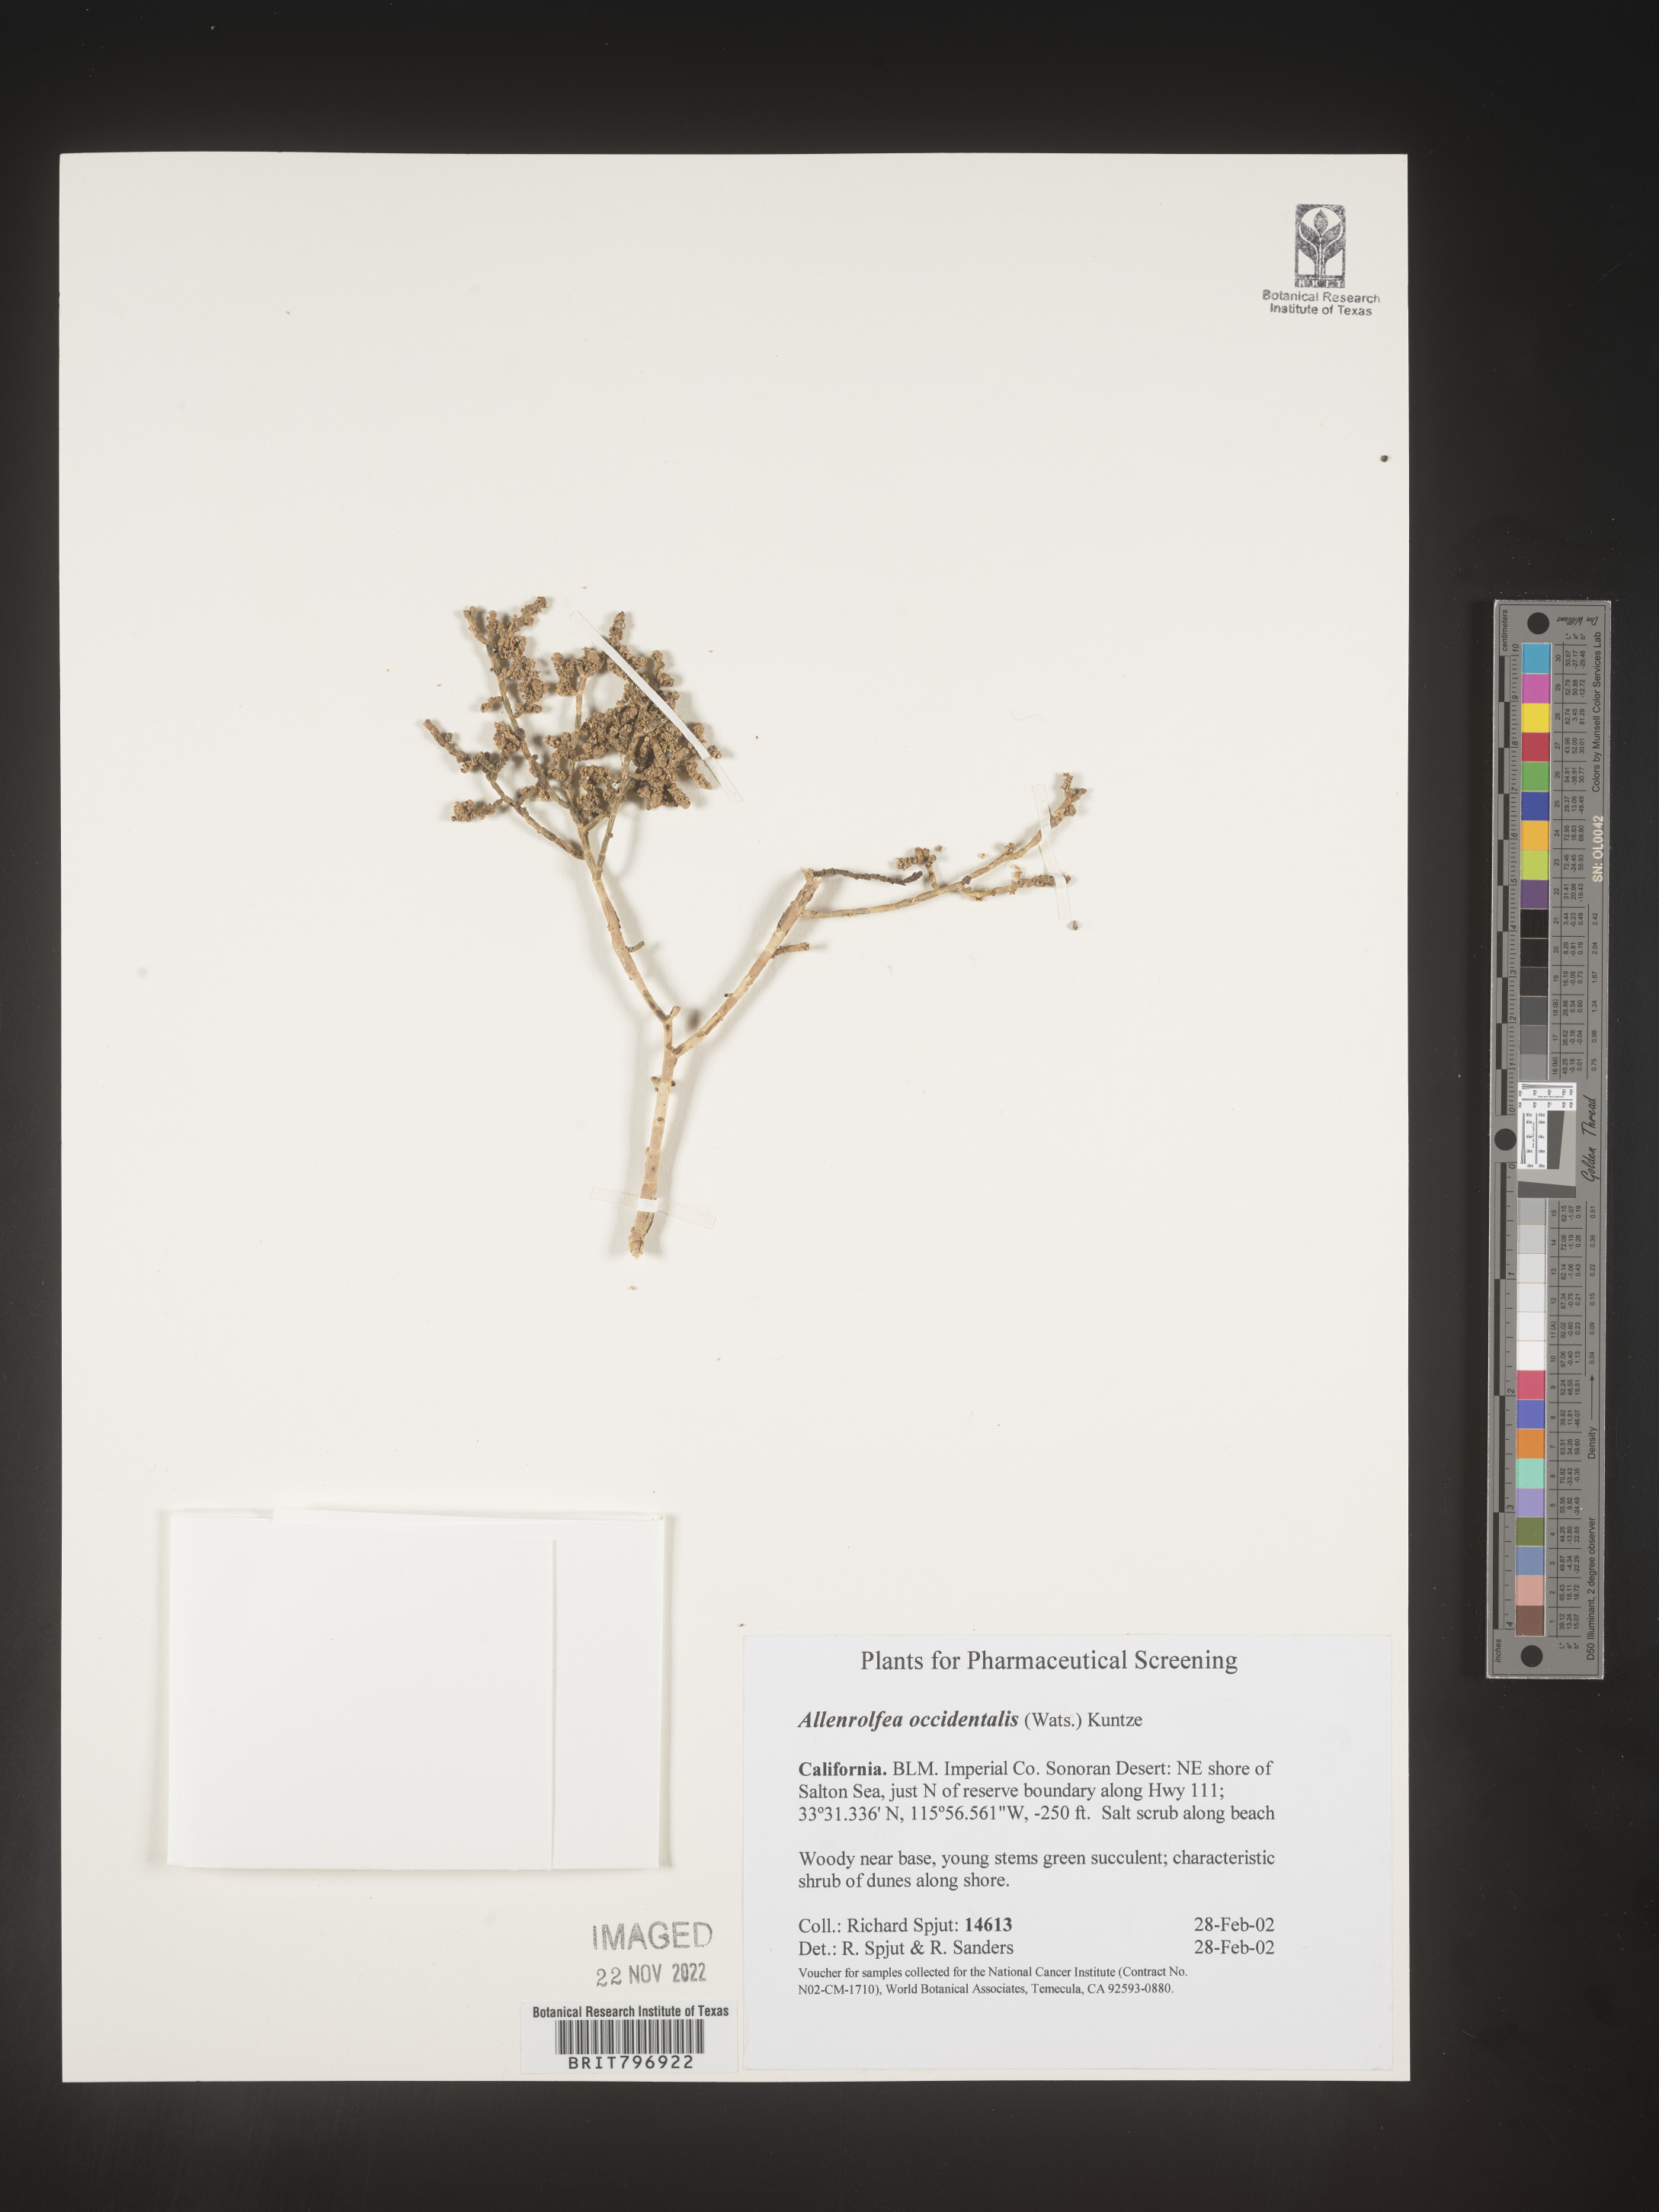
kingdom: Plantae
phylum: Tracheophyta
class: Magnoliopsida
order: Caryophyllales
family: Amaranthaceae
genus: Allenrolfea
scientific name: Allenrolfea
